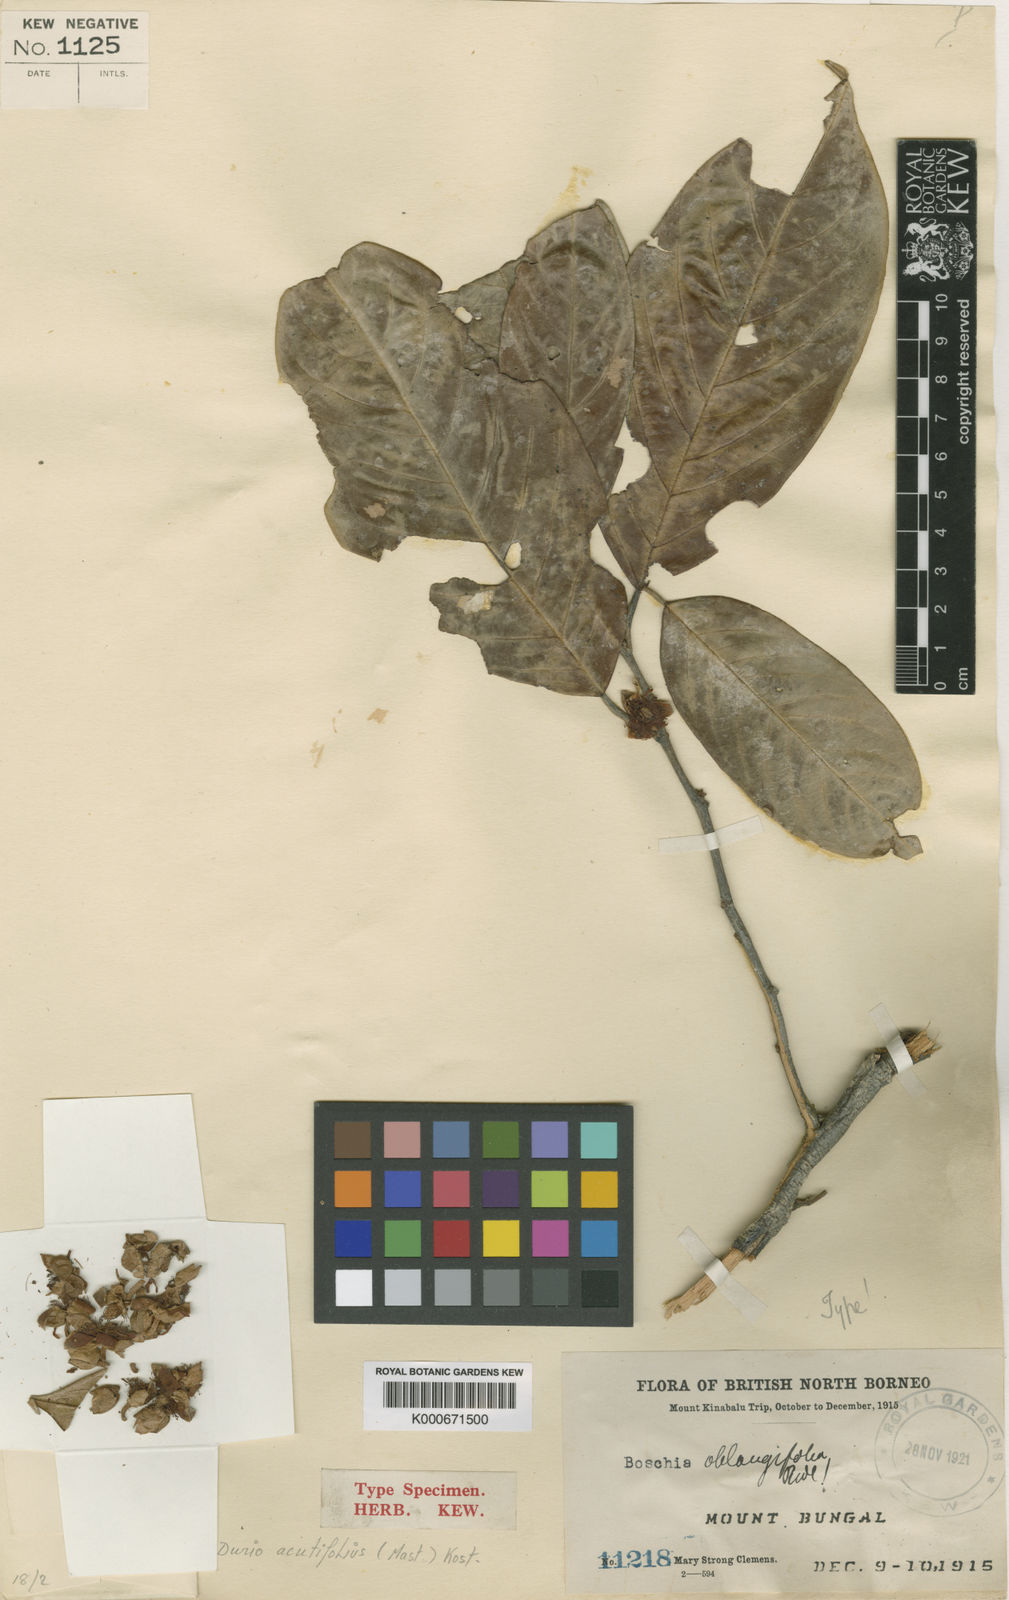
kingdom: Plantae
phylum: Tracheophyta
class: Magnoliopsida
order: Malvales
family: Malvaceae
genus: Boschia
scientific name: Boschia griffithii
